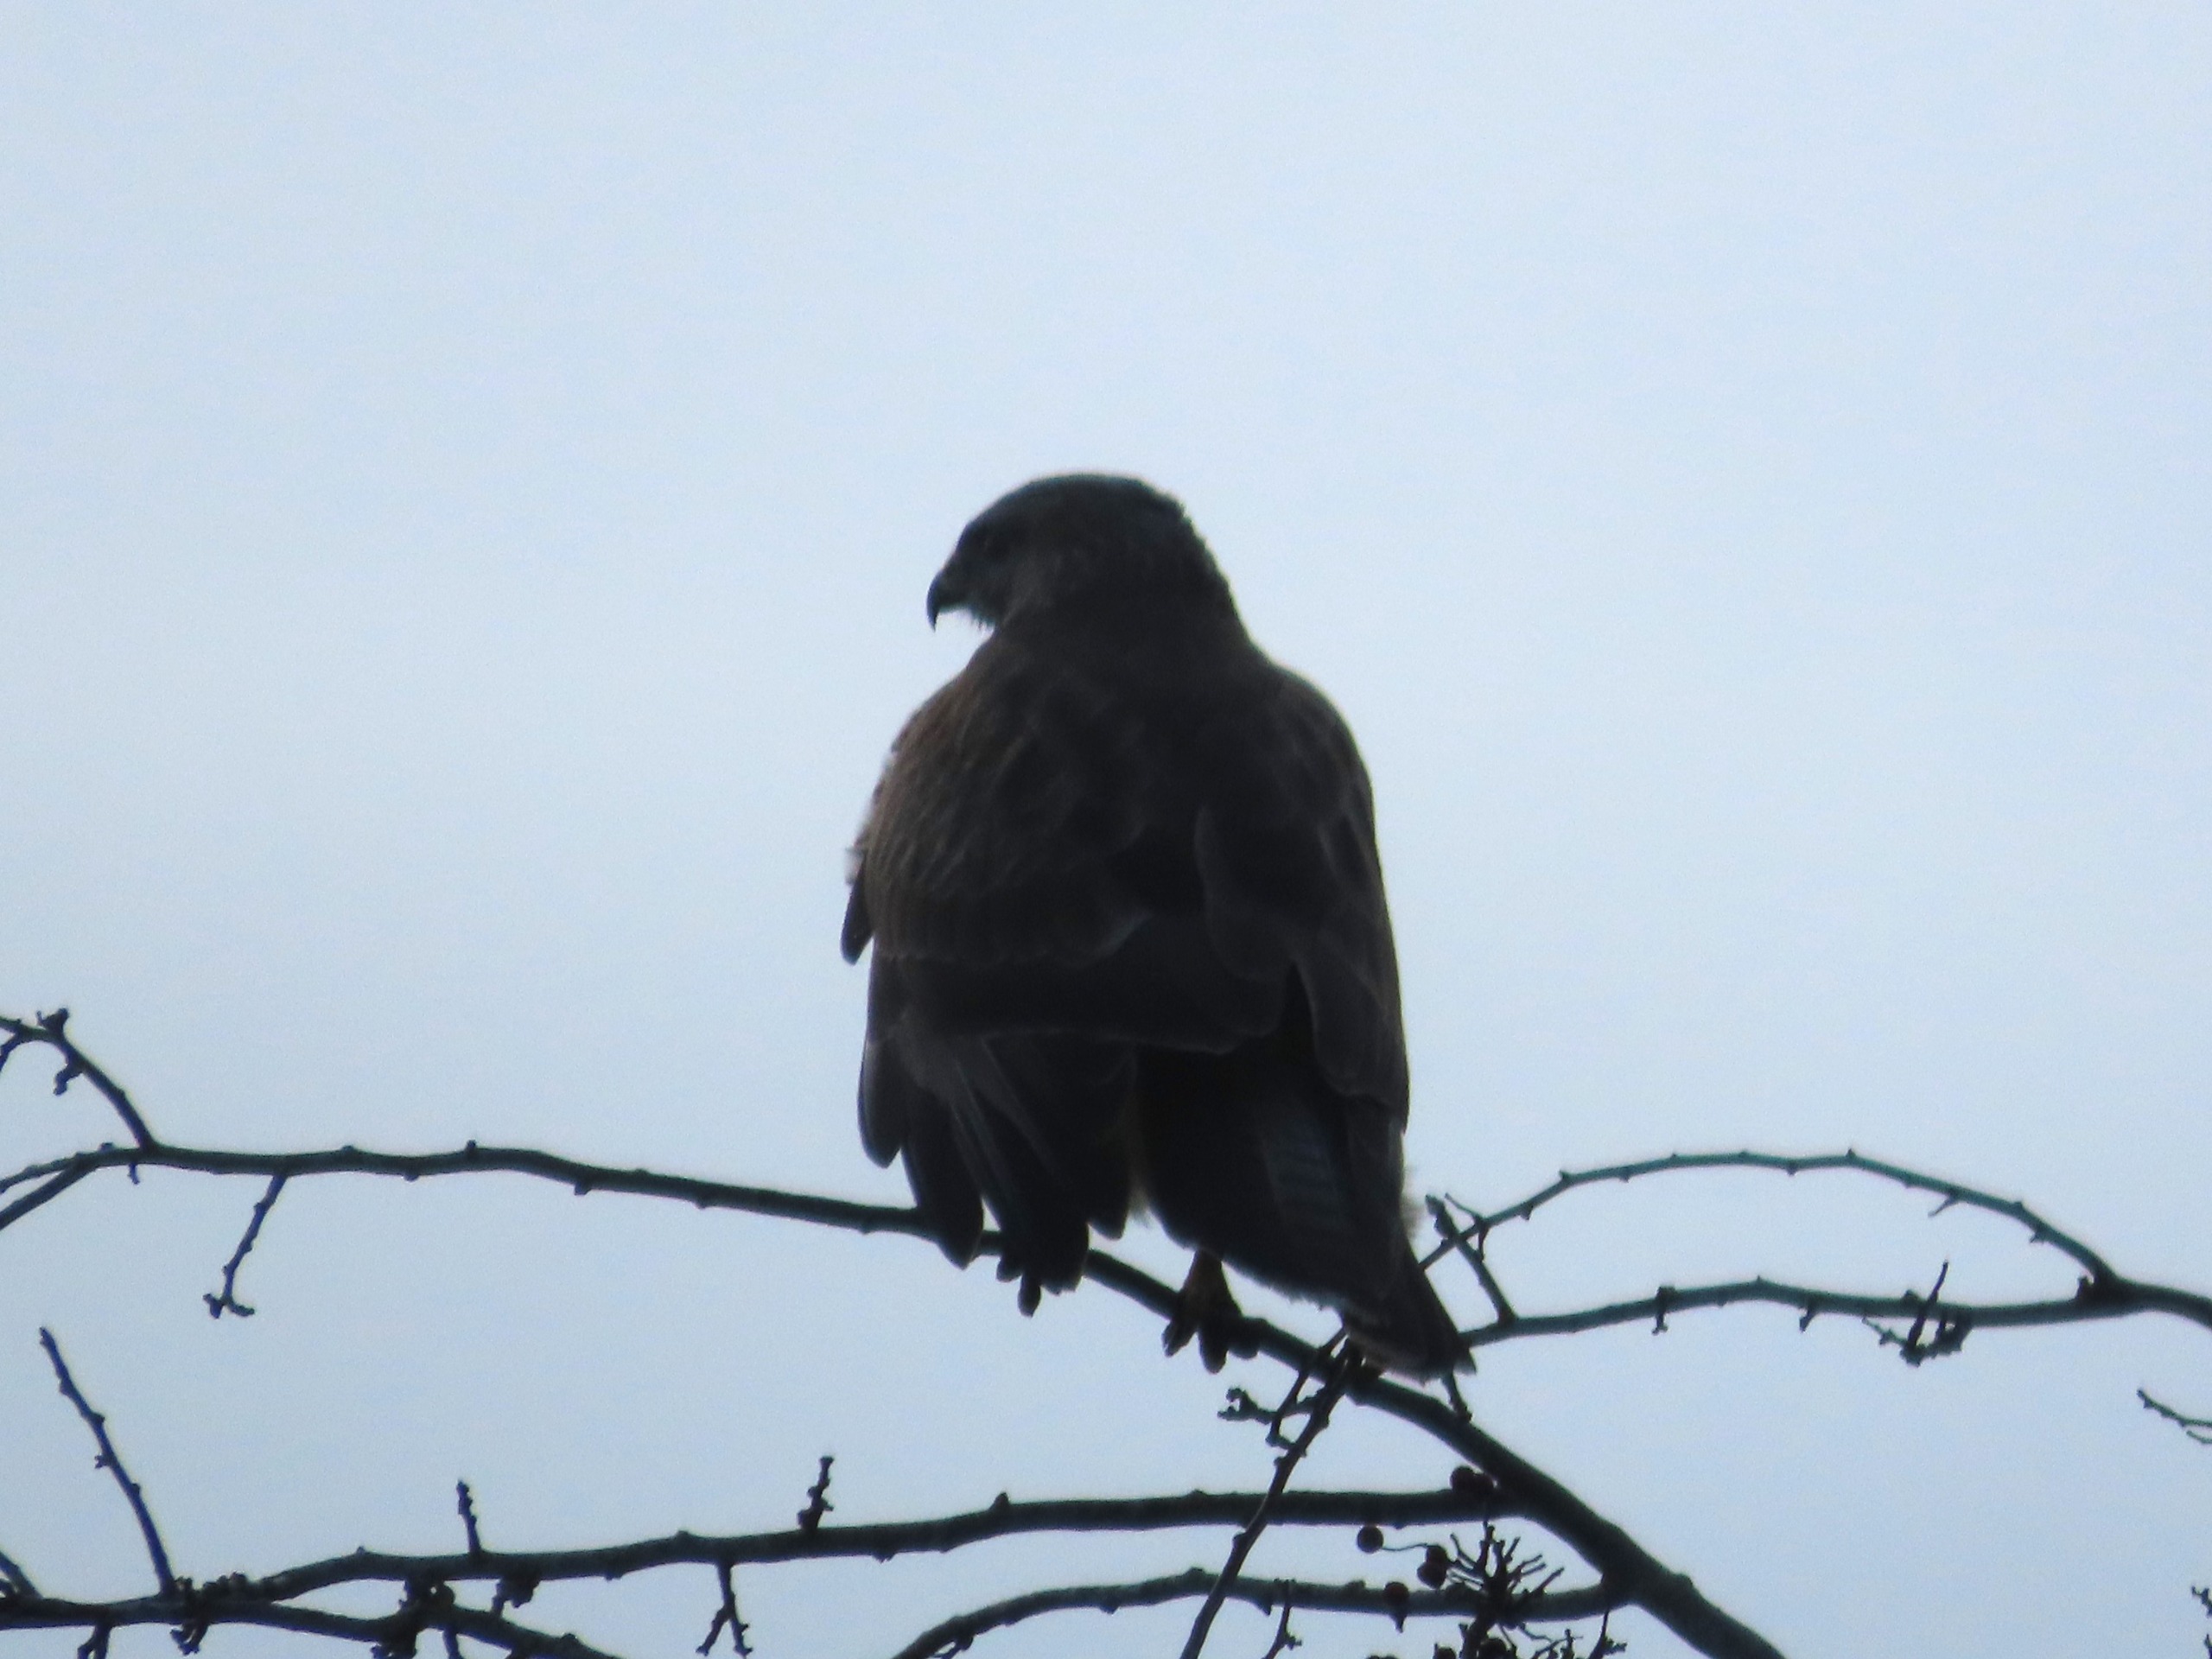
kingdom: Animalia
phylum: Chordata
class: Aves
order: Accipitriformes
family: Accipitridae
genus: Buteo
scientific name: Buteo buteo
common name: Musvåge
